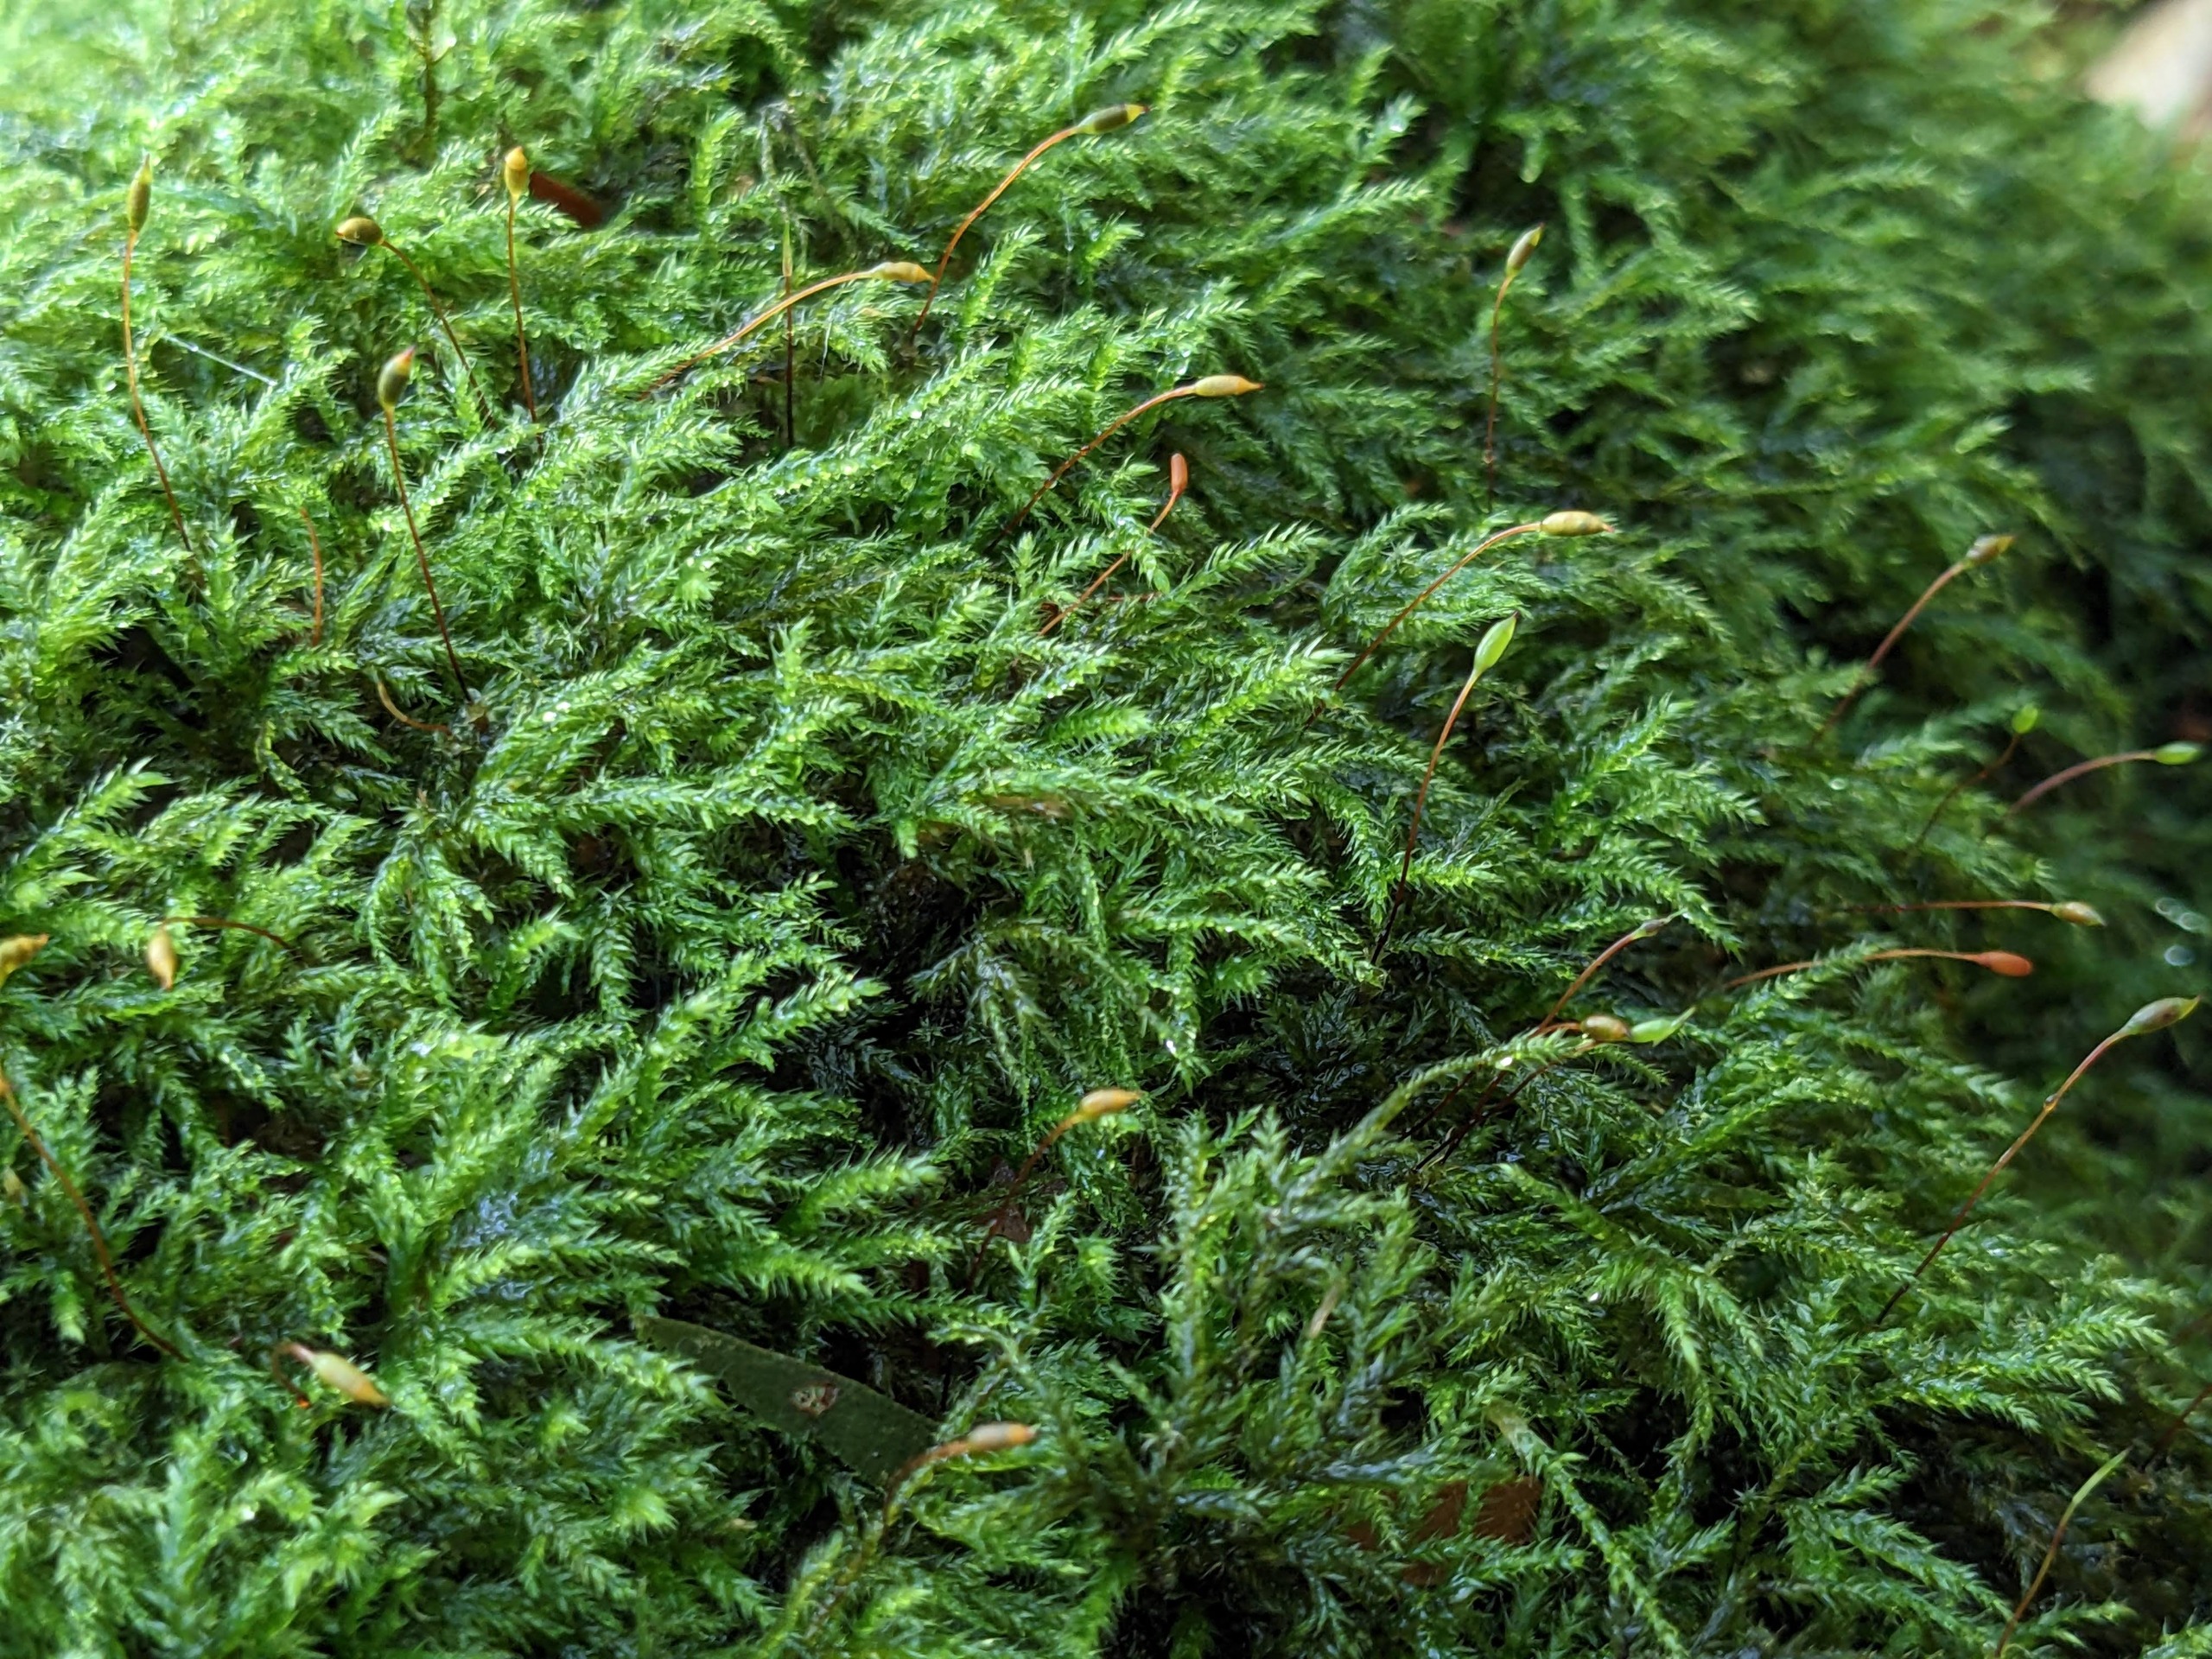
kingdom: Plantae
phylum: Bryophyta
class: Bryopsida
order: Hypnales
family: Lembophyllaceae
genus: Pseudisothecium
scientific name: Pseudisothecium myosuroides
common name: Slank stammemos
